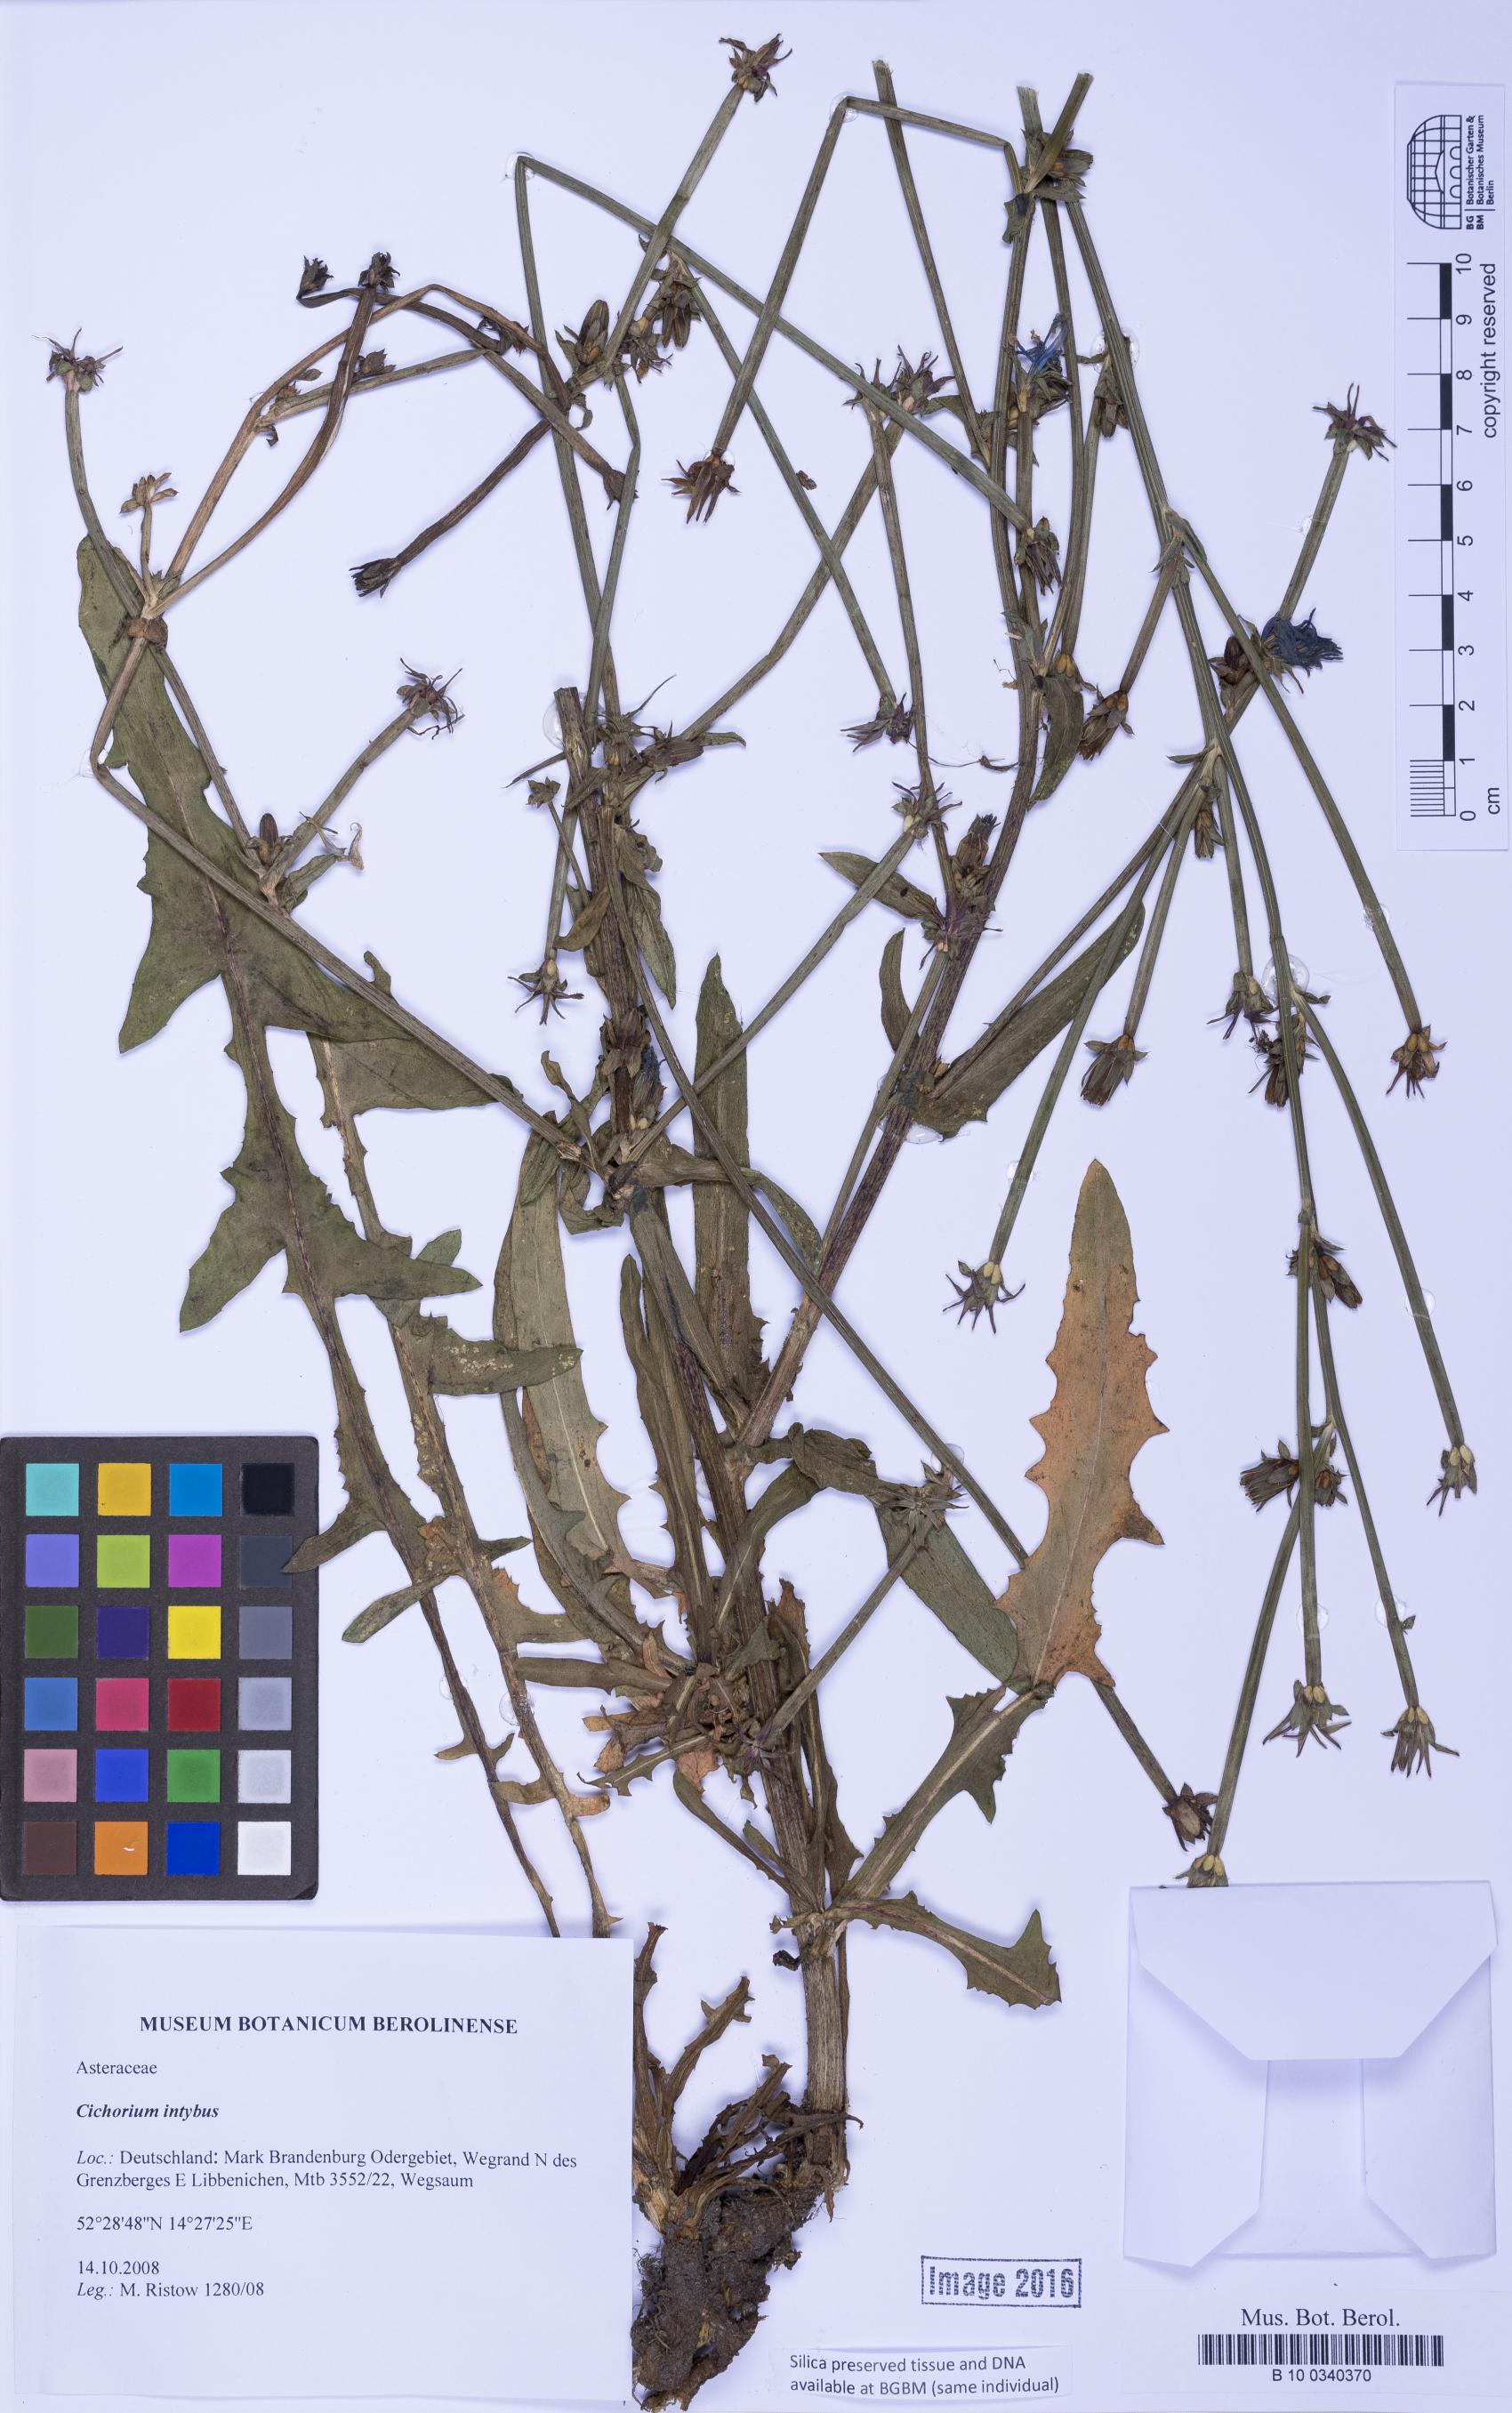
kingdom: Plantae
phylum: Tracheophyta
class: Magnoliopsida
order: Asterales
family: Asteraceae
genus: Cichorium
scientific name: Cichorium intybus
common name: Chicory
